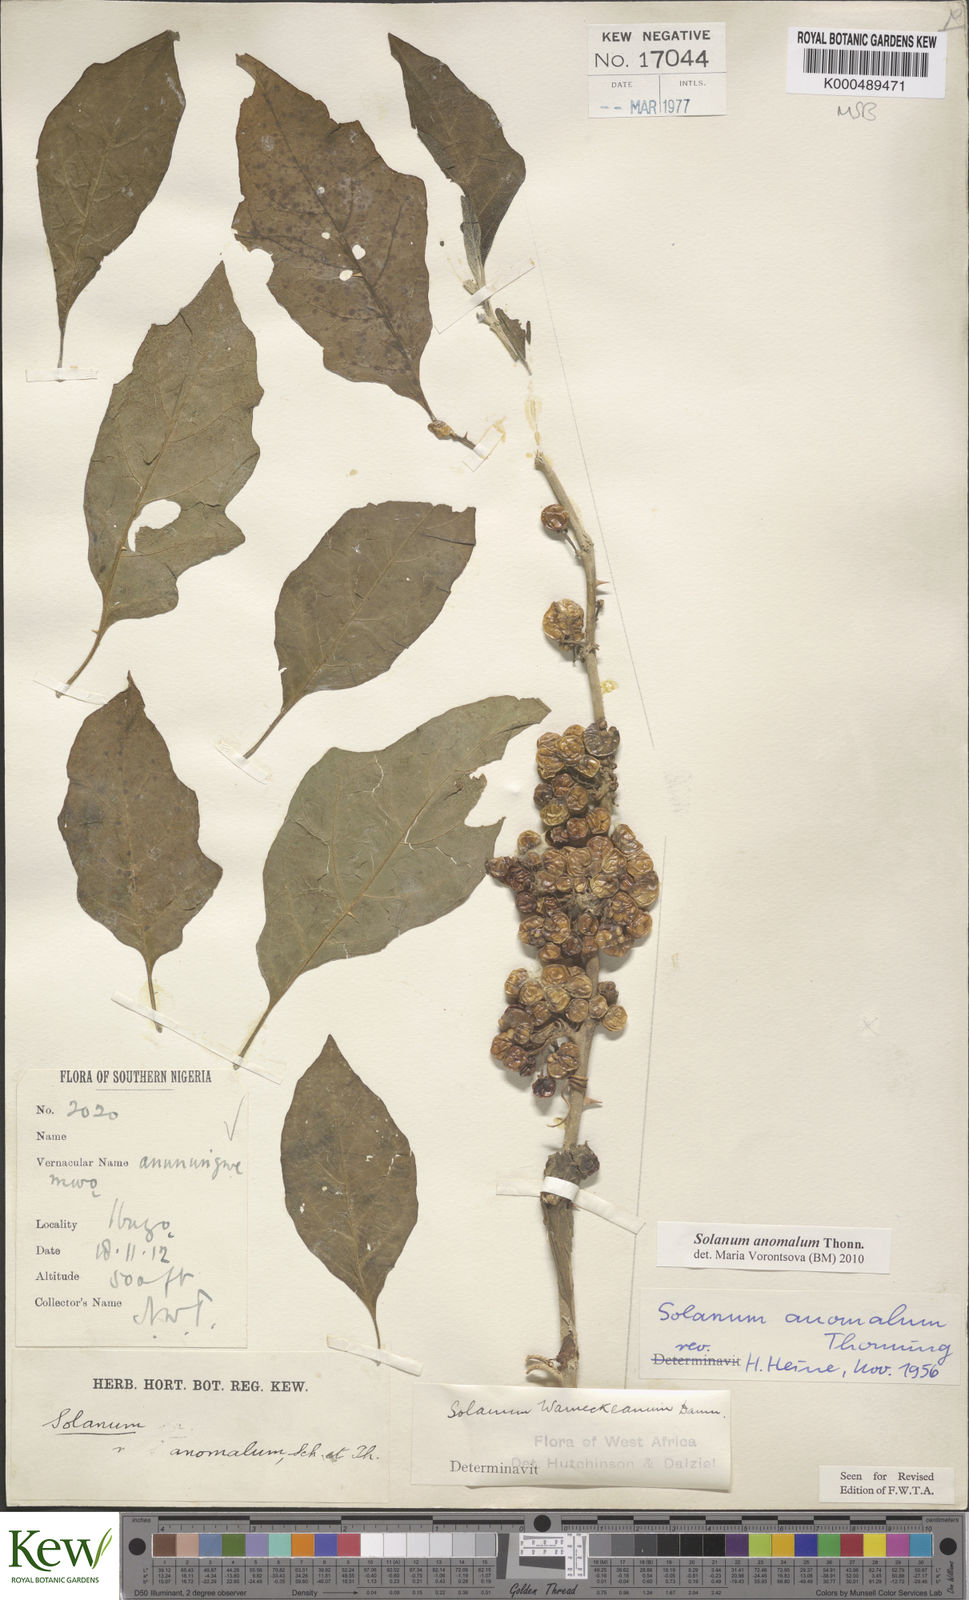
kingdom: Plantae
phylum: Tracheophyta
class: Magnoliopsida
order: Solanales
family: Solanaceae
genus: Solanum
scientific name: Solanum anomalum
